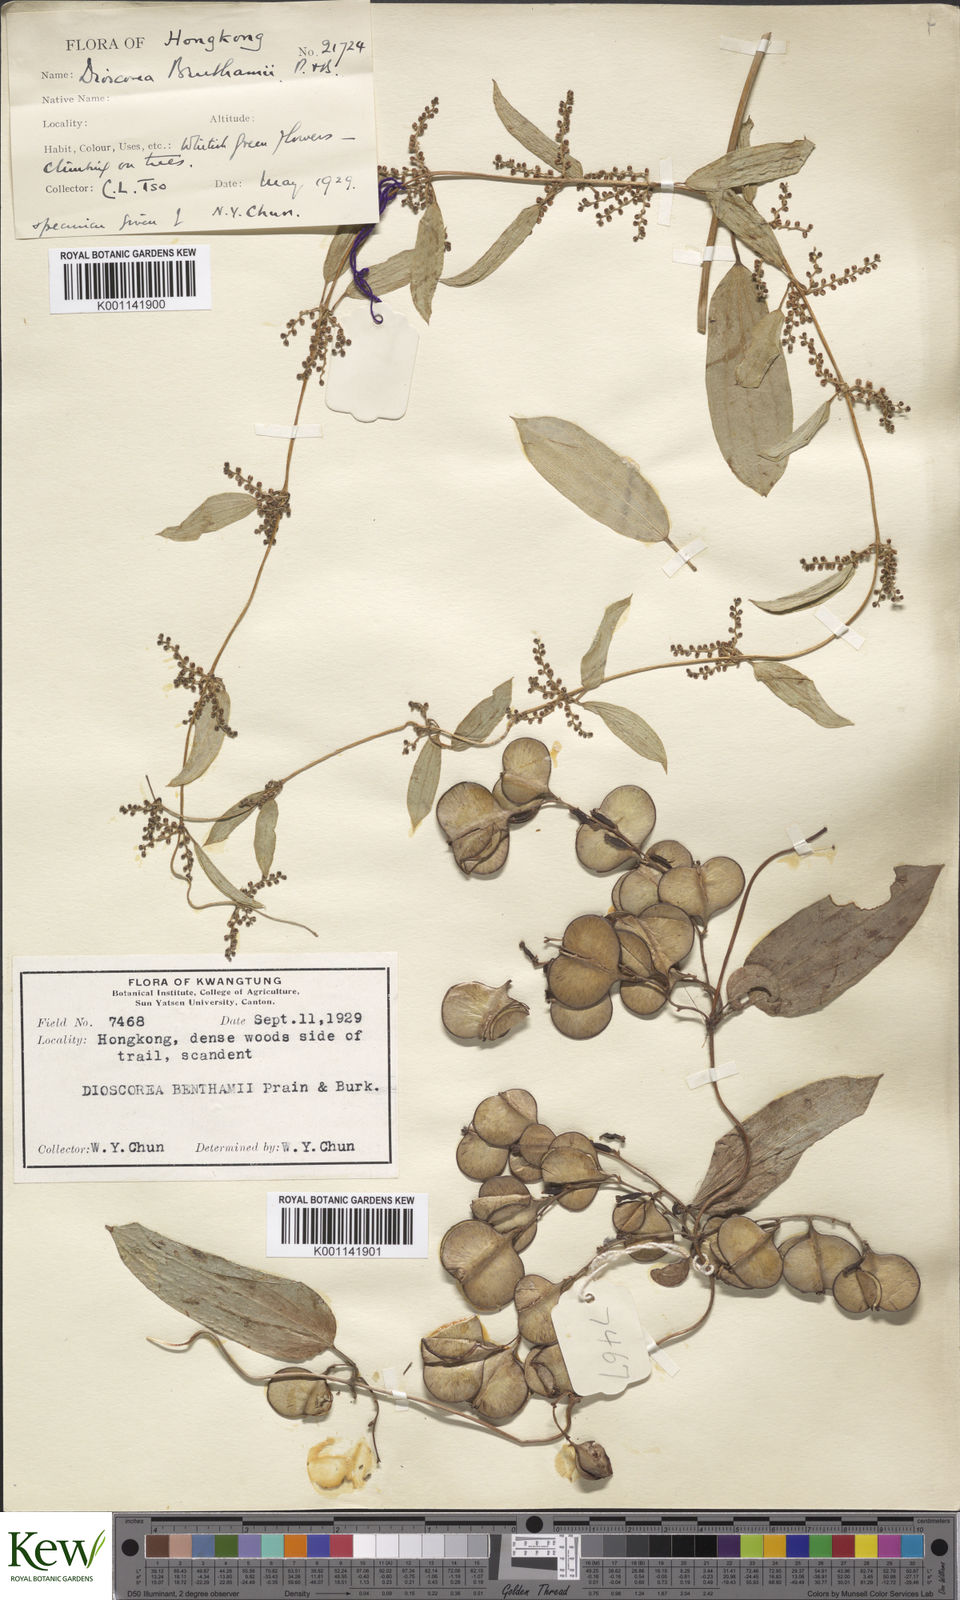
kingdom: Plantae
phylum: Tracheophyta
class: Liliopsida
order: Dioscoreales
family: Dioscoreaceae
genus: Dioscorea
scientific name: Dioscorea benthamii
